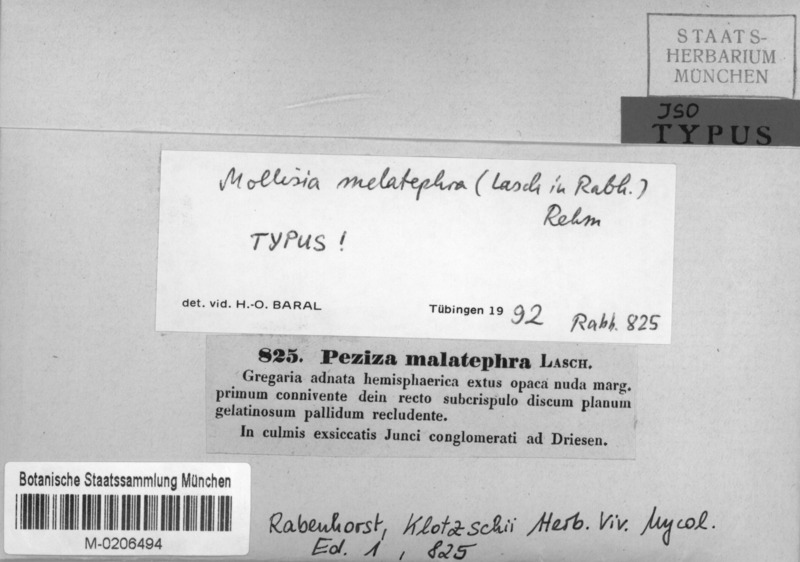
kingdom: Fungi
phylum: Ascomycota
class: Leotiomycetes
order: Helotiales
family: Mollisiaceae
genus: Niptera
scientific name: Niptera melatephra
